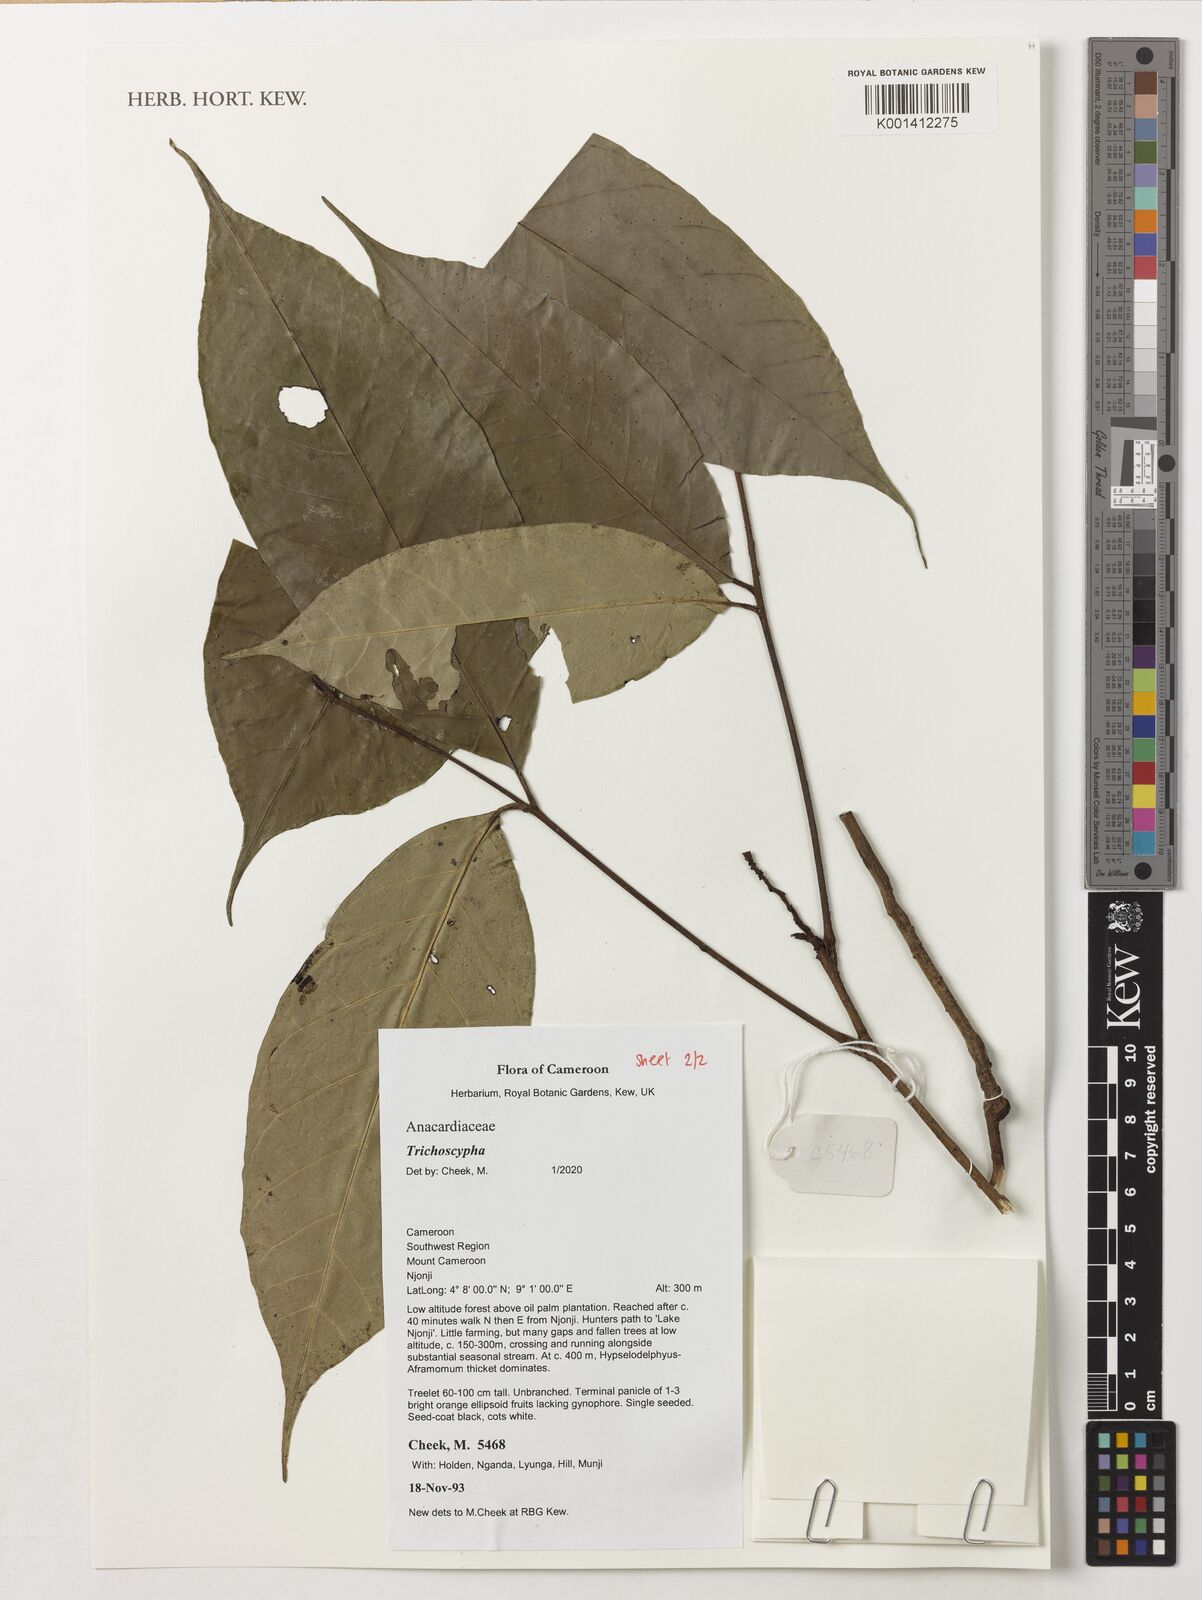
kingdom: Plantae
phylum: Tracheophyta
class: Magnoliopsida
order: Sapindales
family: Anacardiaceae
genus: Trichoscypha
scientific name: Trichoscypha
